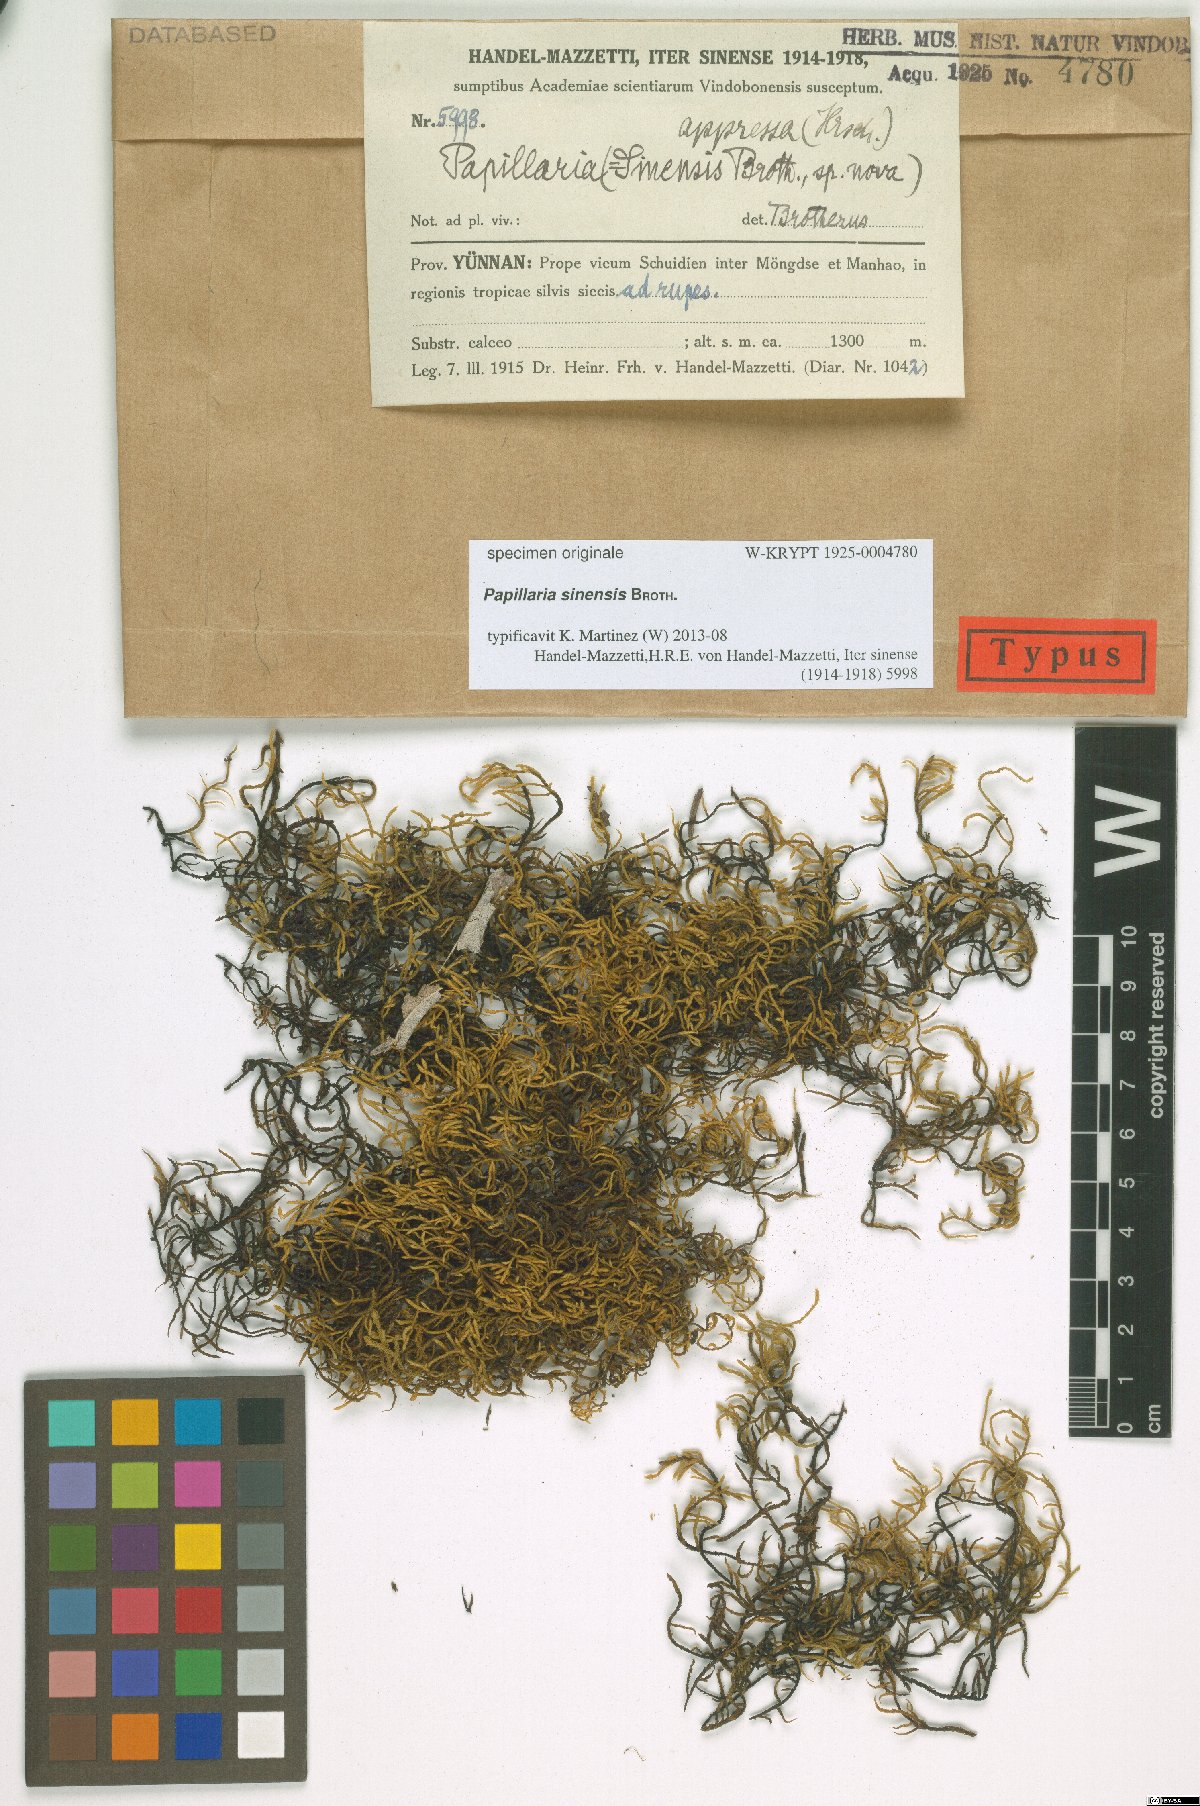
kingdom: Plantae
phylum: Bryophyta
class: Bryopsida
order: Hypnales
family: Meteoriaceae
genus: Trachypus
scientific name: Trachypus bicolor
